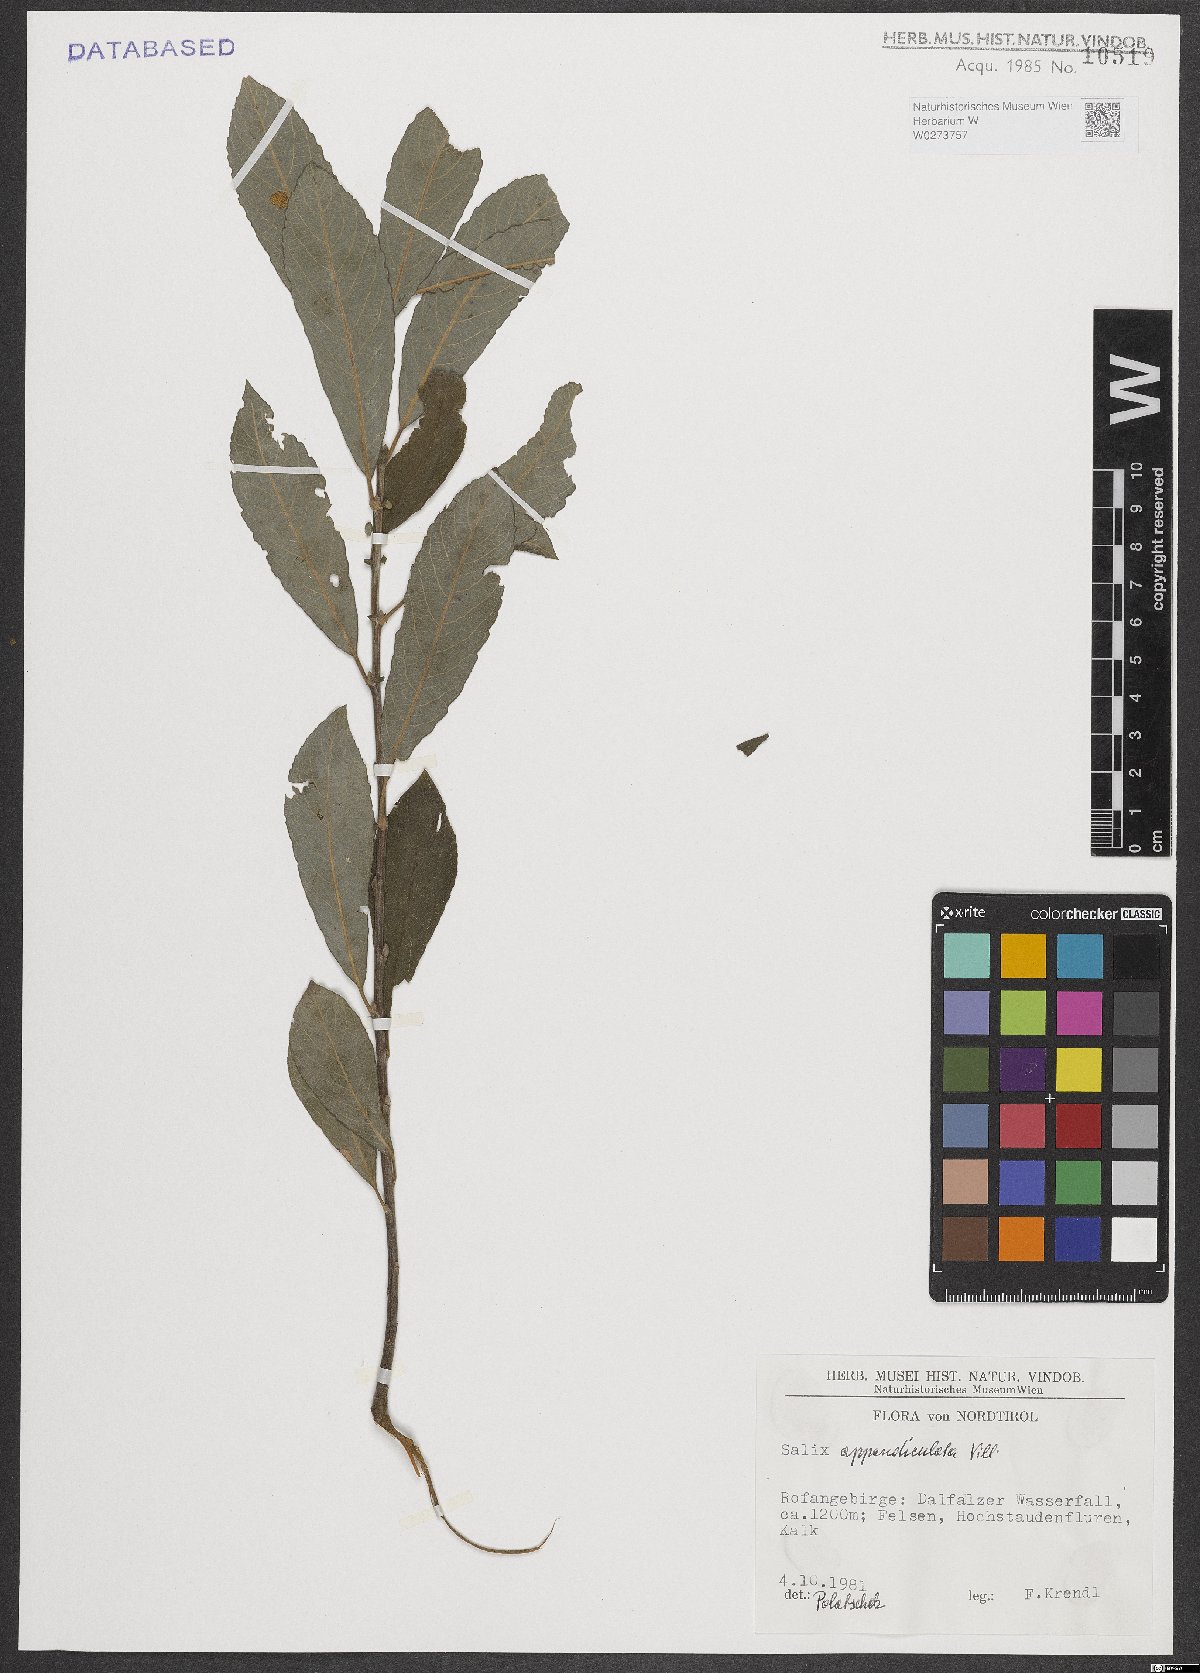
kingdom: Plantae
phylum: Tracheophyta
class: Magnoliopsida
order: Malpighiales
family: Salicaceae
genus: Salix
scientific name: Salix appendiculata
